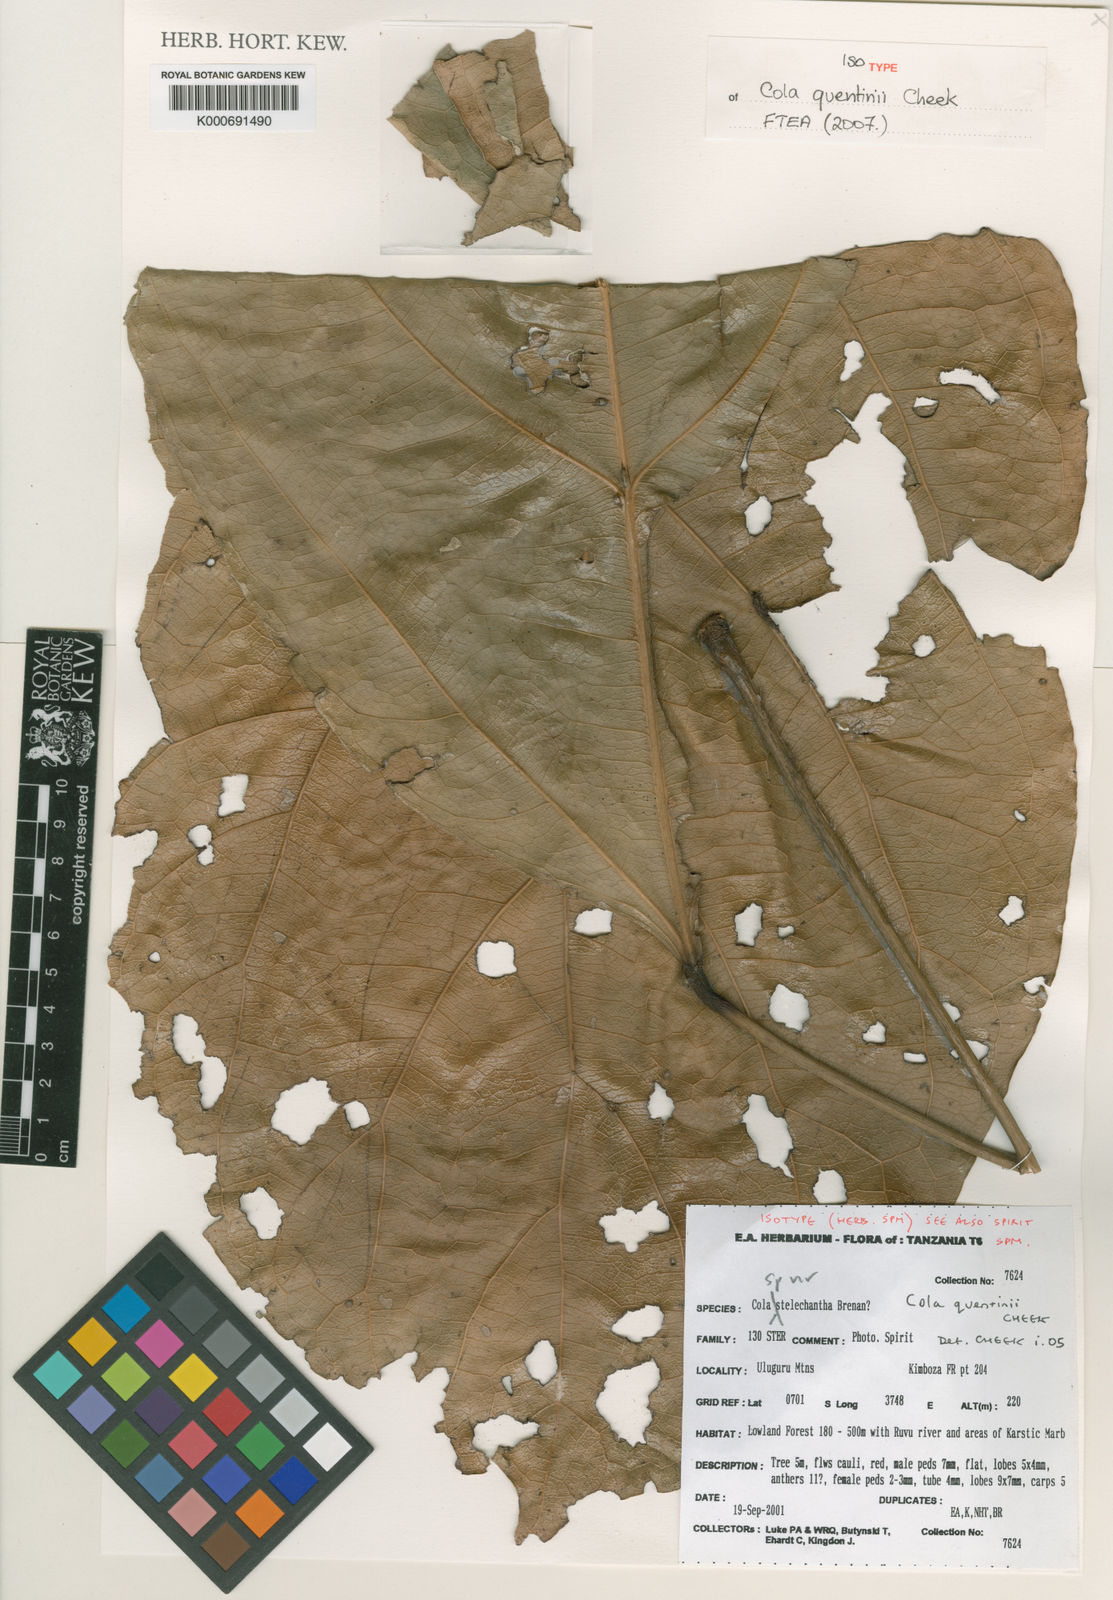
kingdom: Plantae
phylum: Tracheophyta
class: Magnoliopsida
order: Malvales
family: Malvaceae
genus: Cola
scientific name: Cola quentinii
